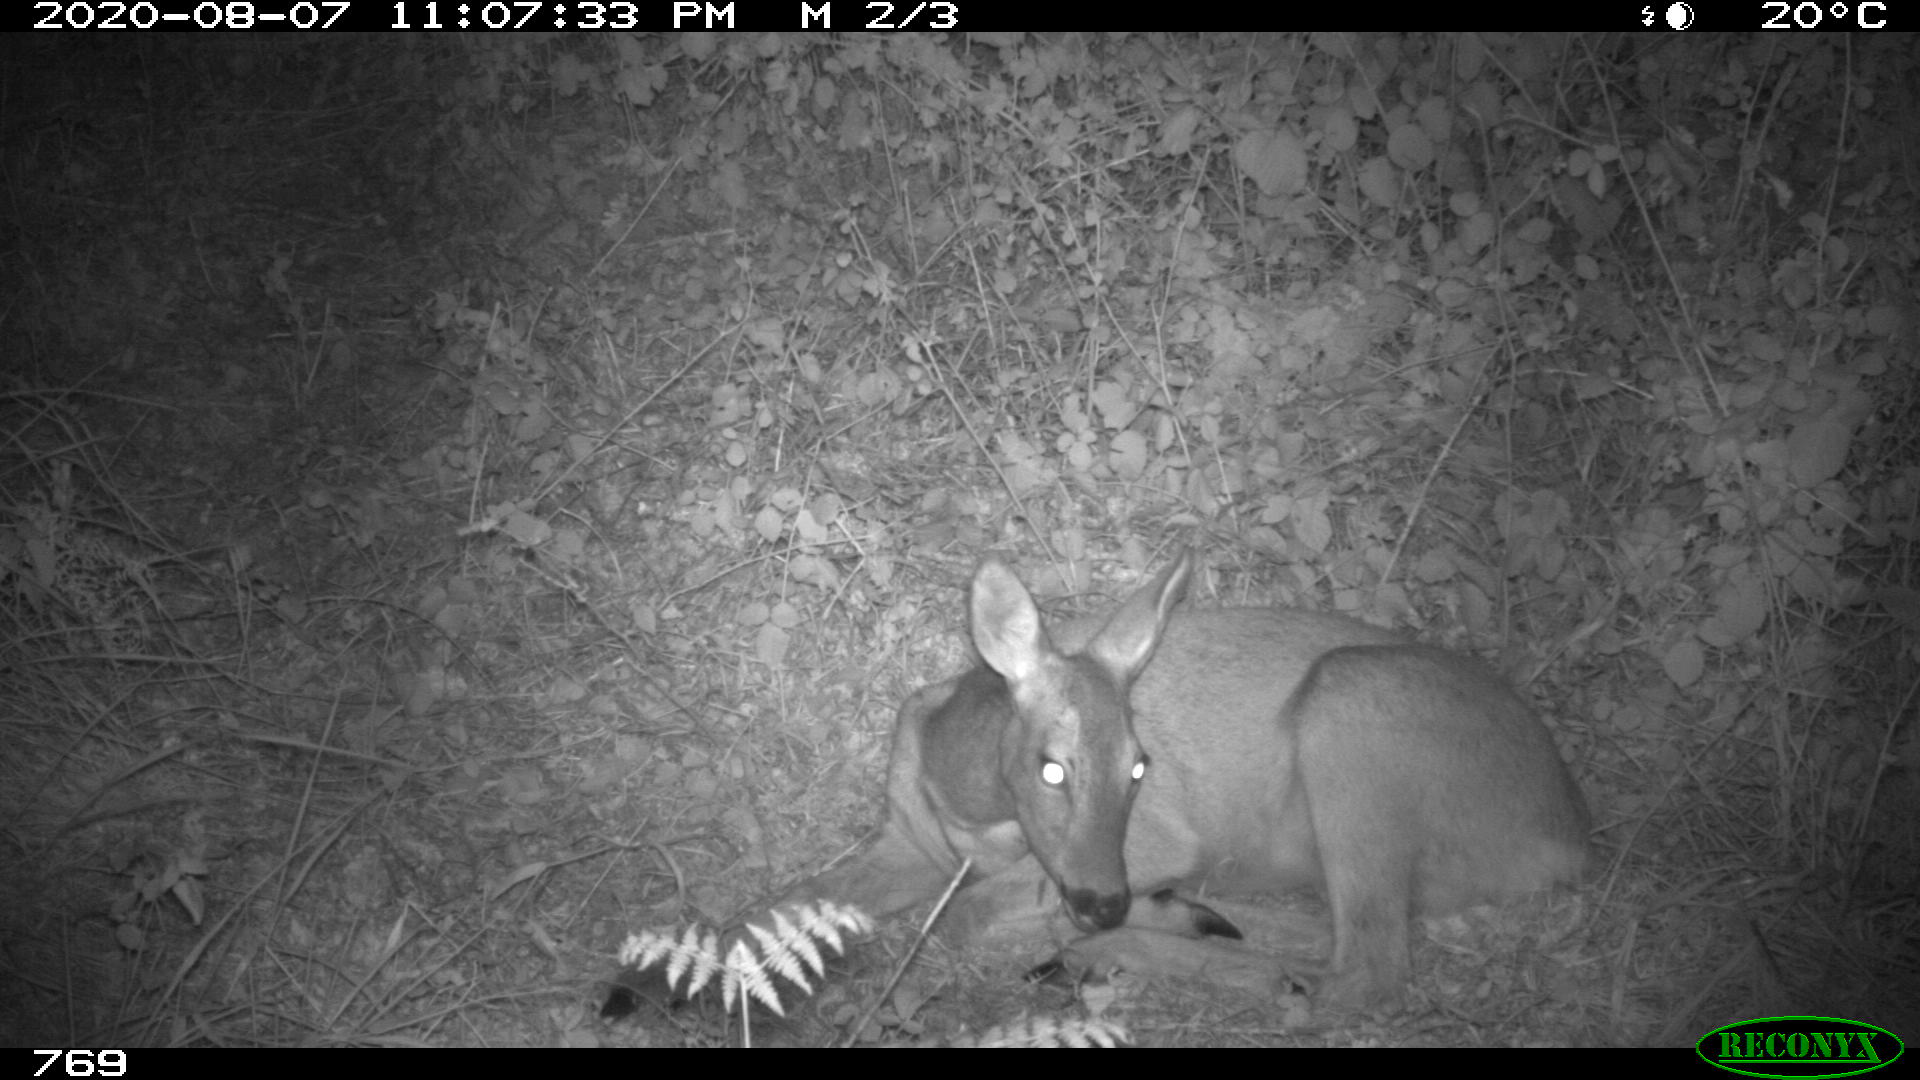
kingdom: Animalia
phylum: Chordata
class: Mammalia
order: Artiodactyla
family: Cervidae
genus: Capreolus
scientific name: Capreolus capreolus
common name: Western roe deer
